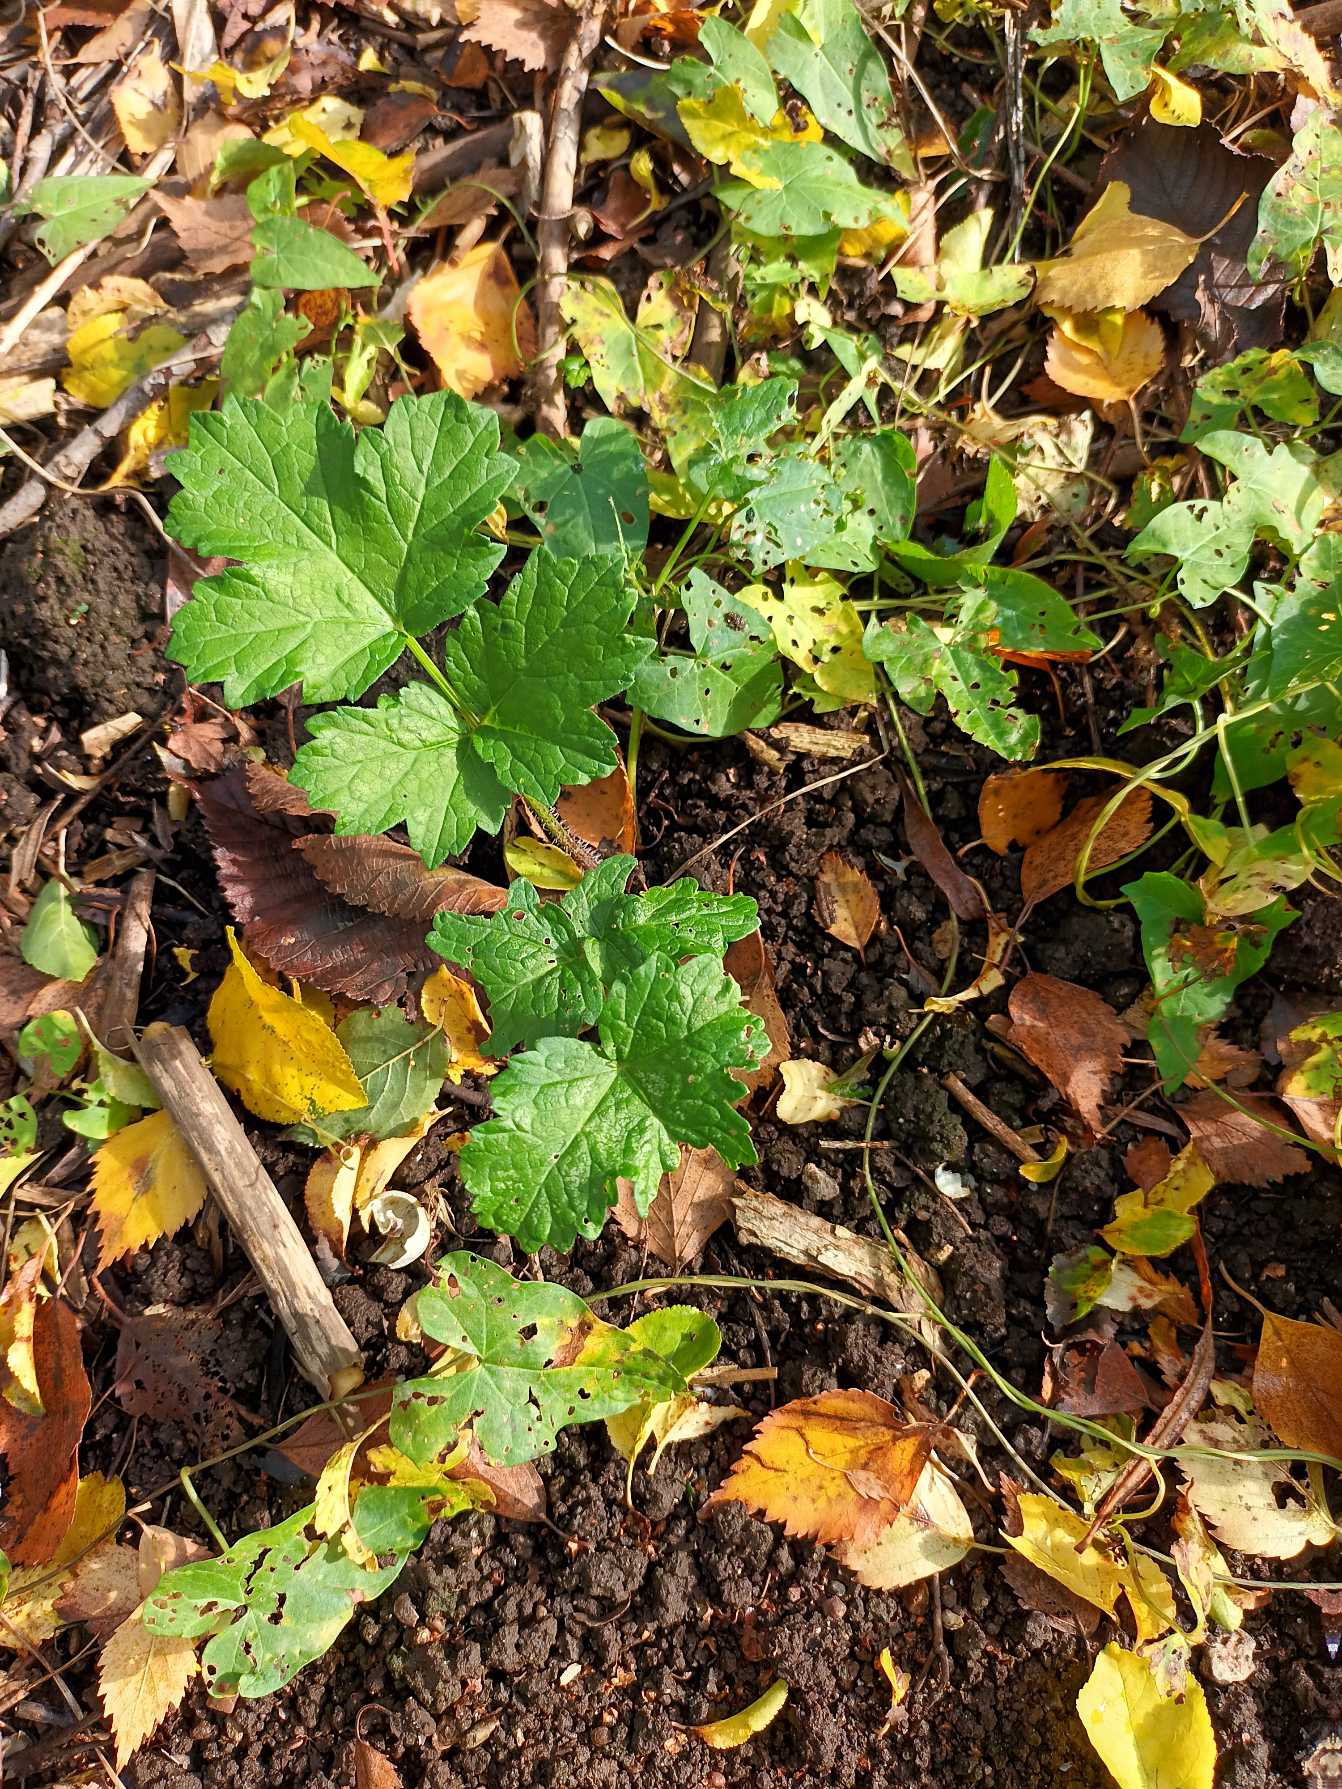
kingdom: Plantae
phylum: Tracheophyta
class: Magnoliopsida
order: Apiales
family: Apiaceae
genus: Heracleum
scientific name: Heracleum sphondylium
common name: Almindelig bjørneklo
